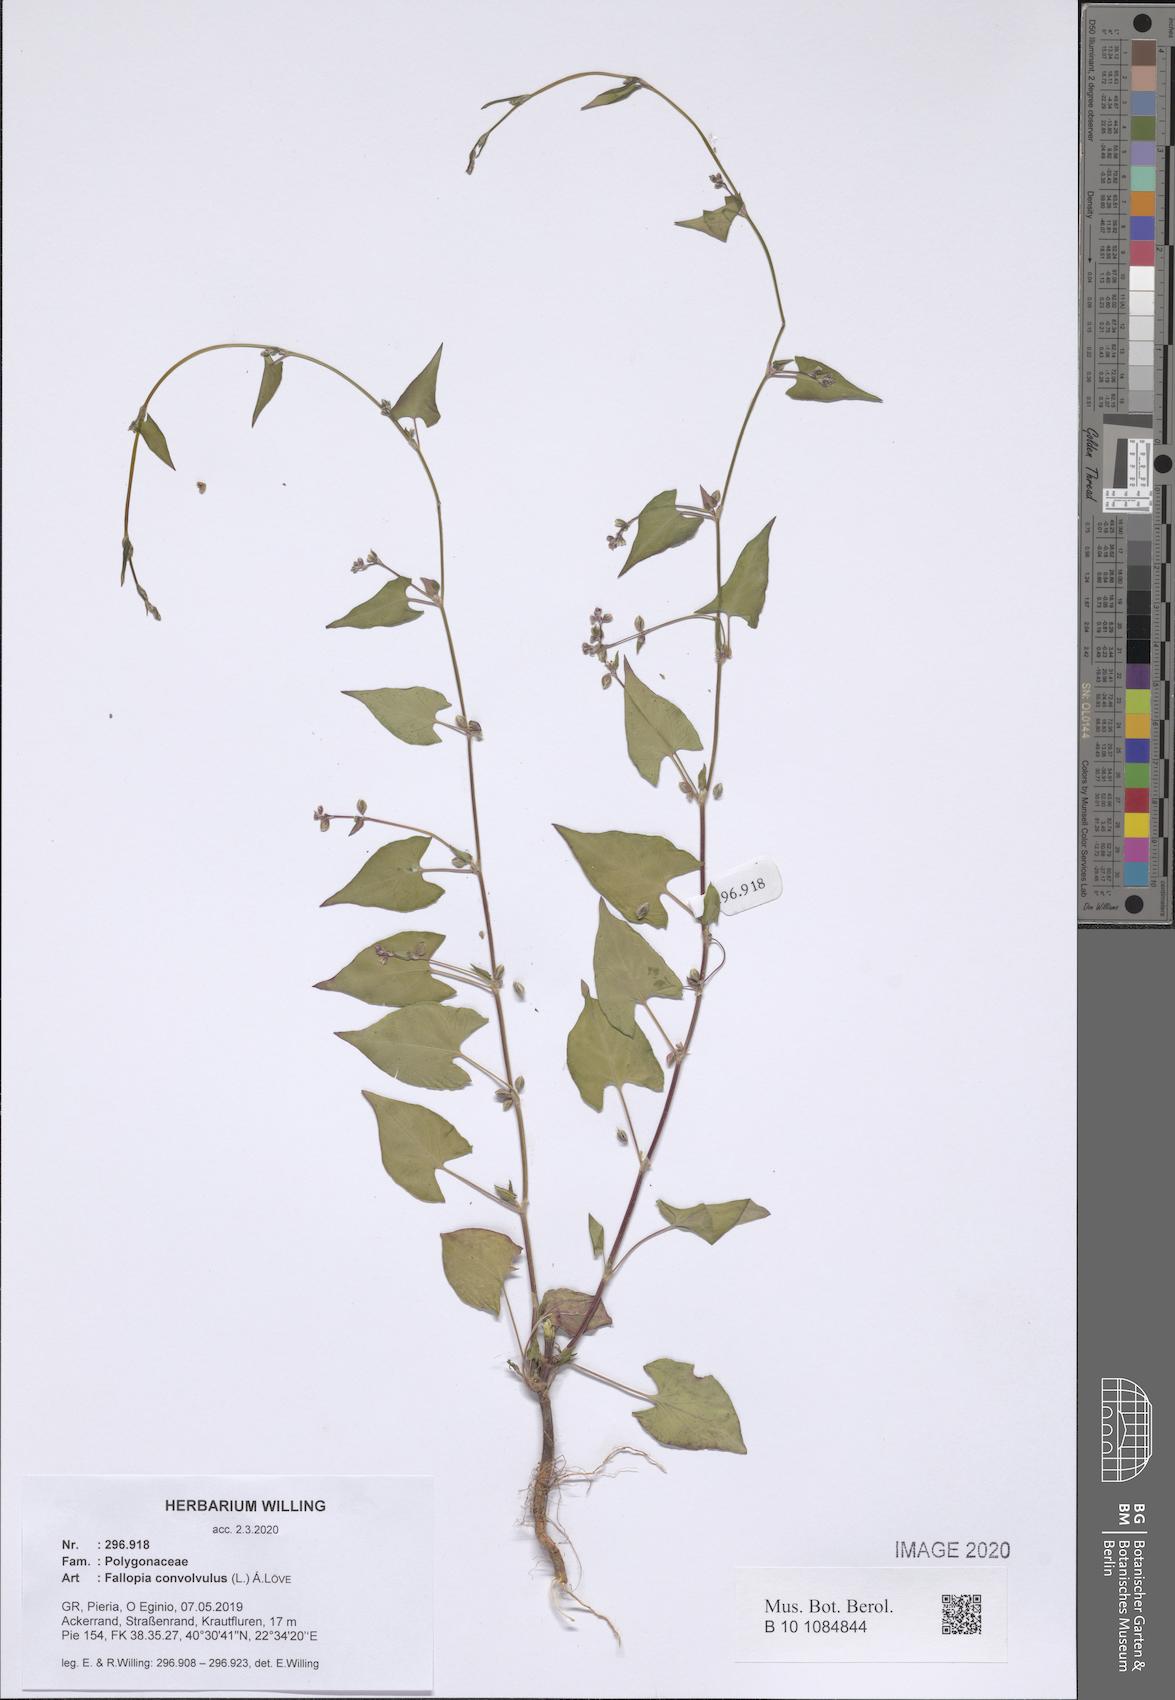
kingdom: Plantae
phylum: Tracheophyta
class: Magnoliopsida
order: Caryophyllales
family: Polygonaceae
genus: Fallopia
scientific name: Fallopia convolvulus
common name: Black bindweed
